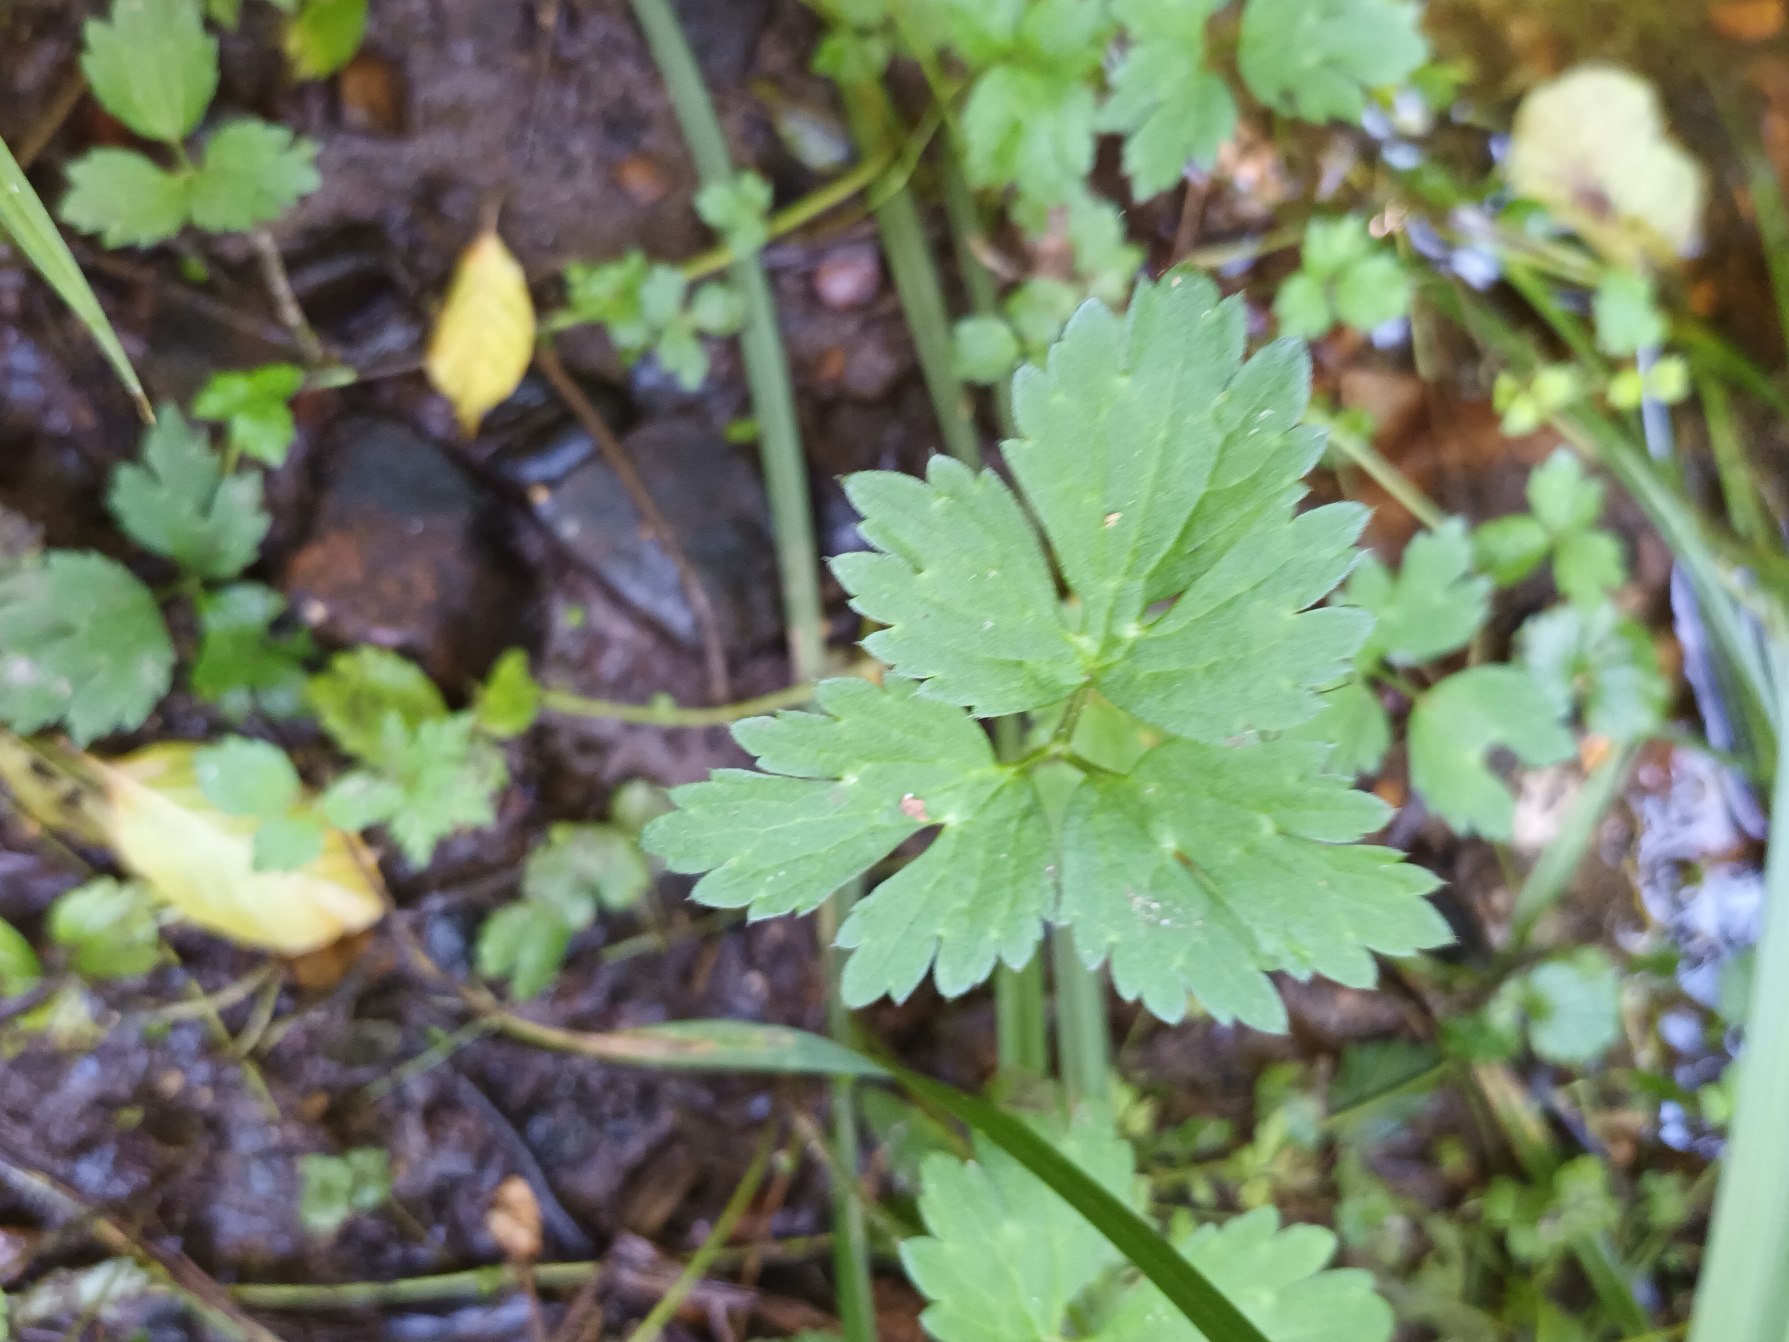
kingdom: Plantae
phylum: Tracheophyta
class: Magnoliopsida
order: Ranunculales
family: Ranunculaceae
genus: Ranunculus
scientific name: Ranunculus repens
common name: Lav ranunkel
